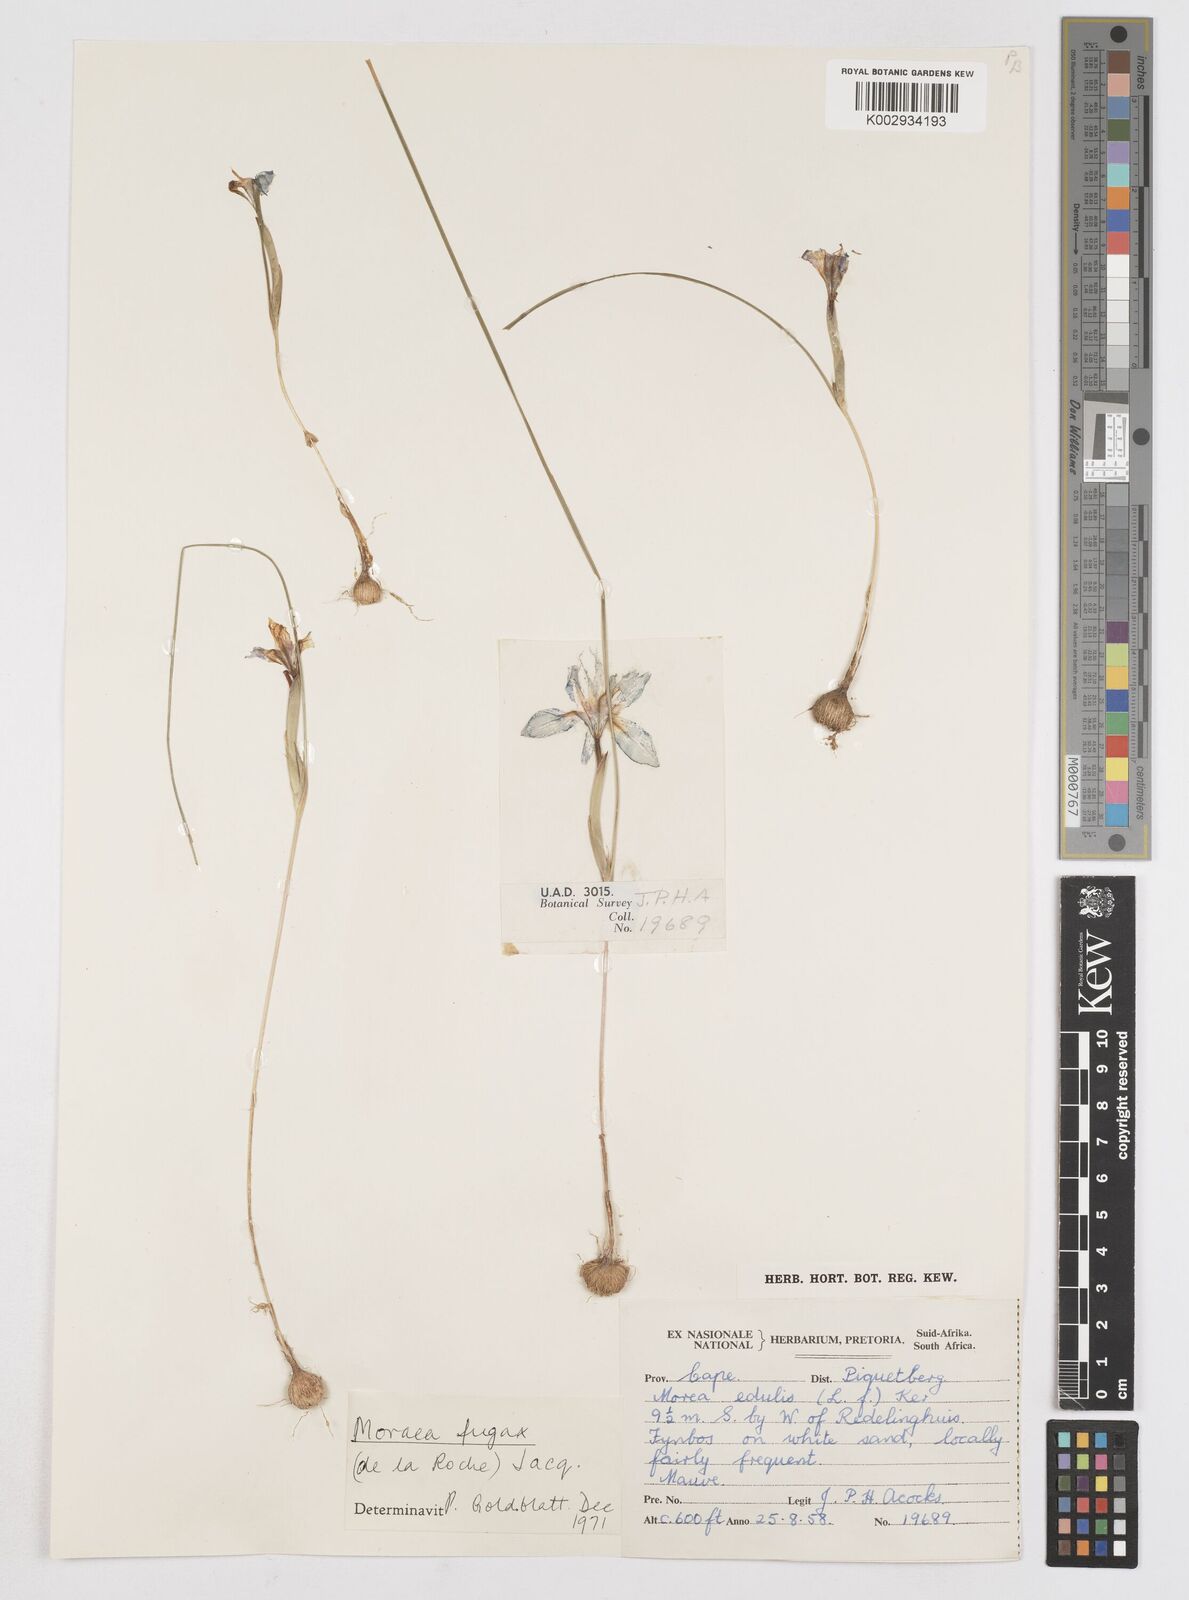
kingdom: Plantae
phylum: Tracheophyta
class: Liliopsida
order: Asparagales
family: Iridaceae
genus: Moraea
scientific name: Moraea fugax
